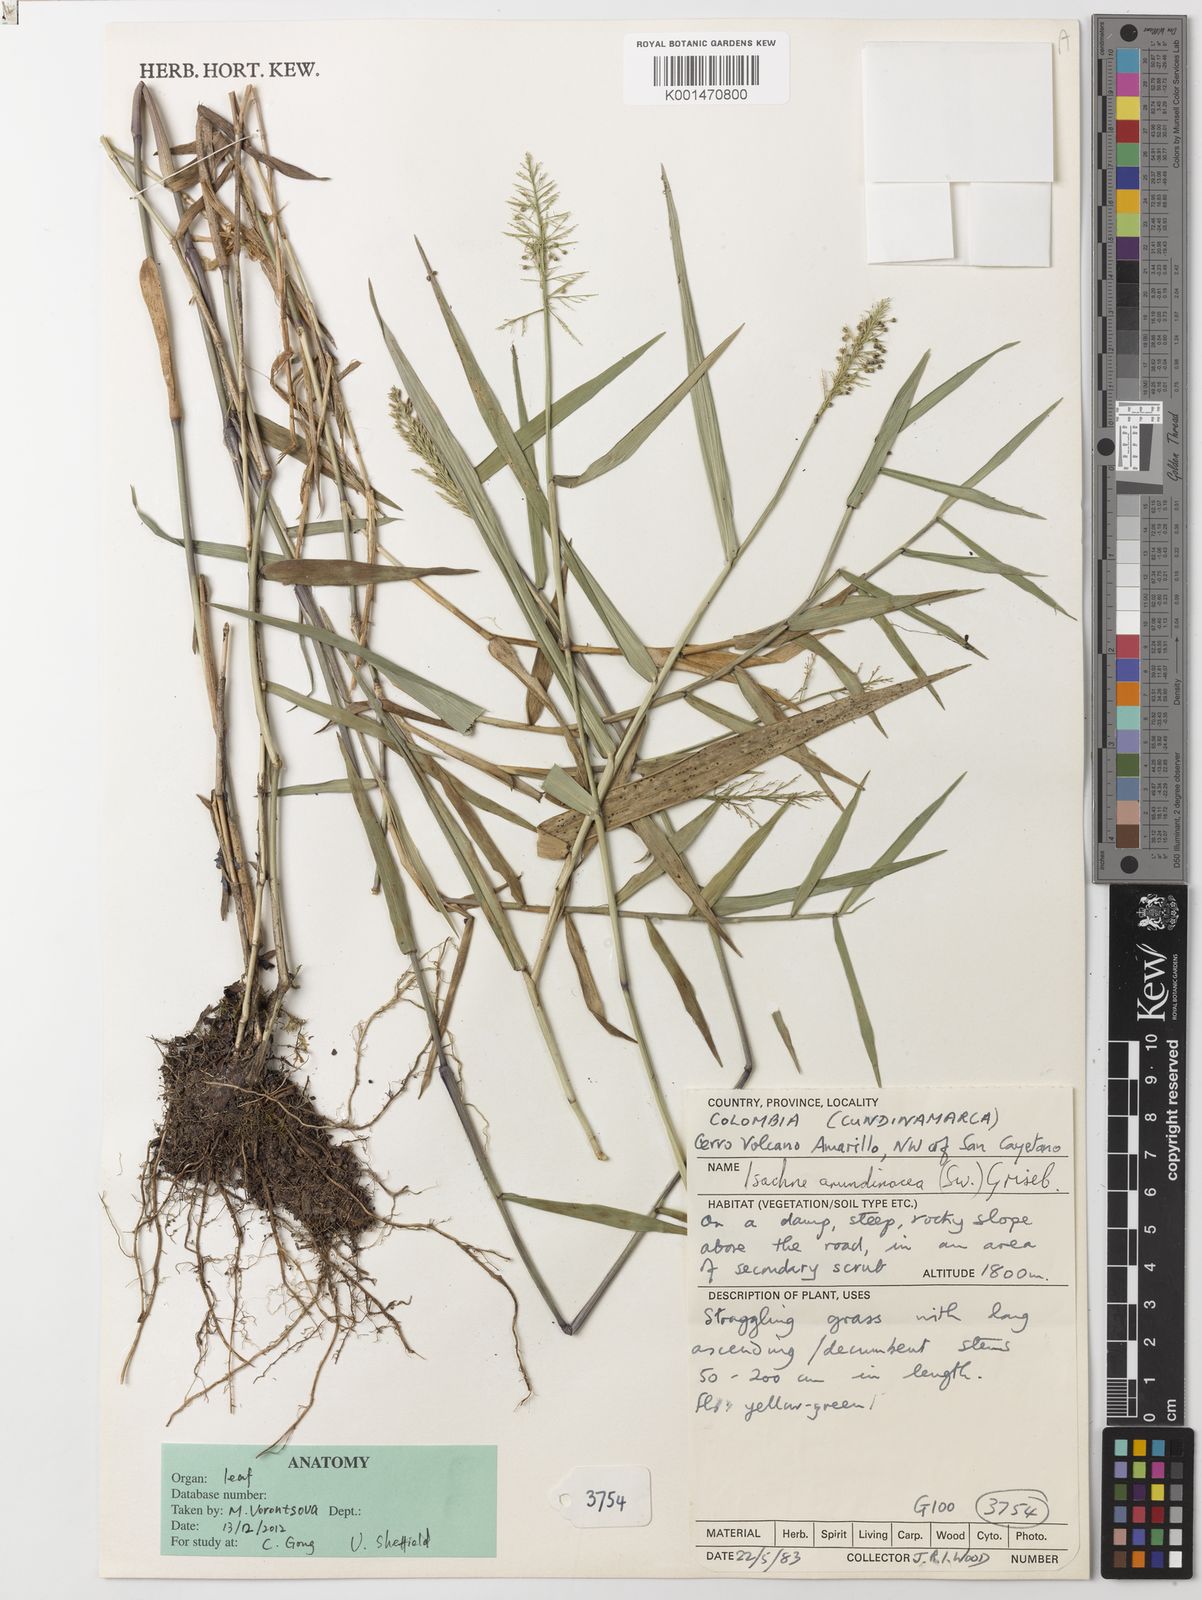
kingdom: Plantae
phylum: Tracheophyta
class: Liliopsida
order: Poales
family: Poaceae
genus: Isachne
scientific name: Isachne arundinacea
